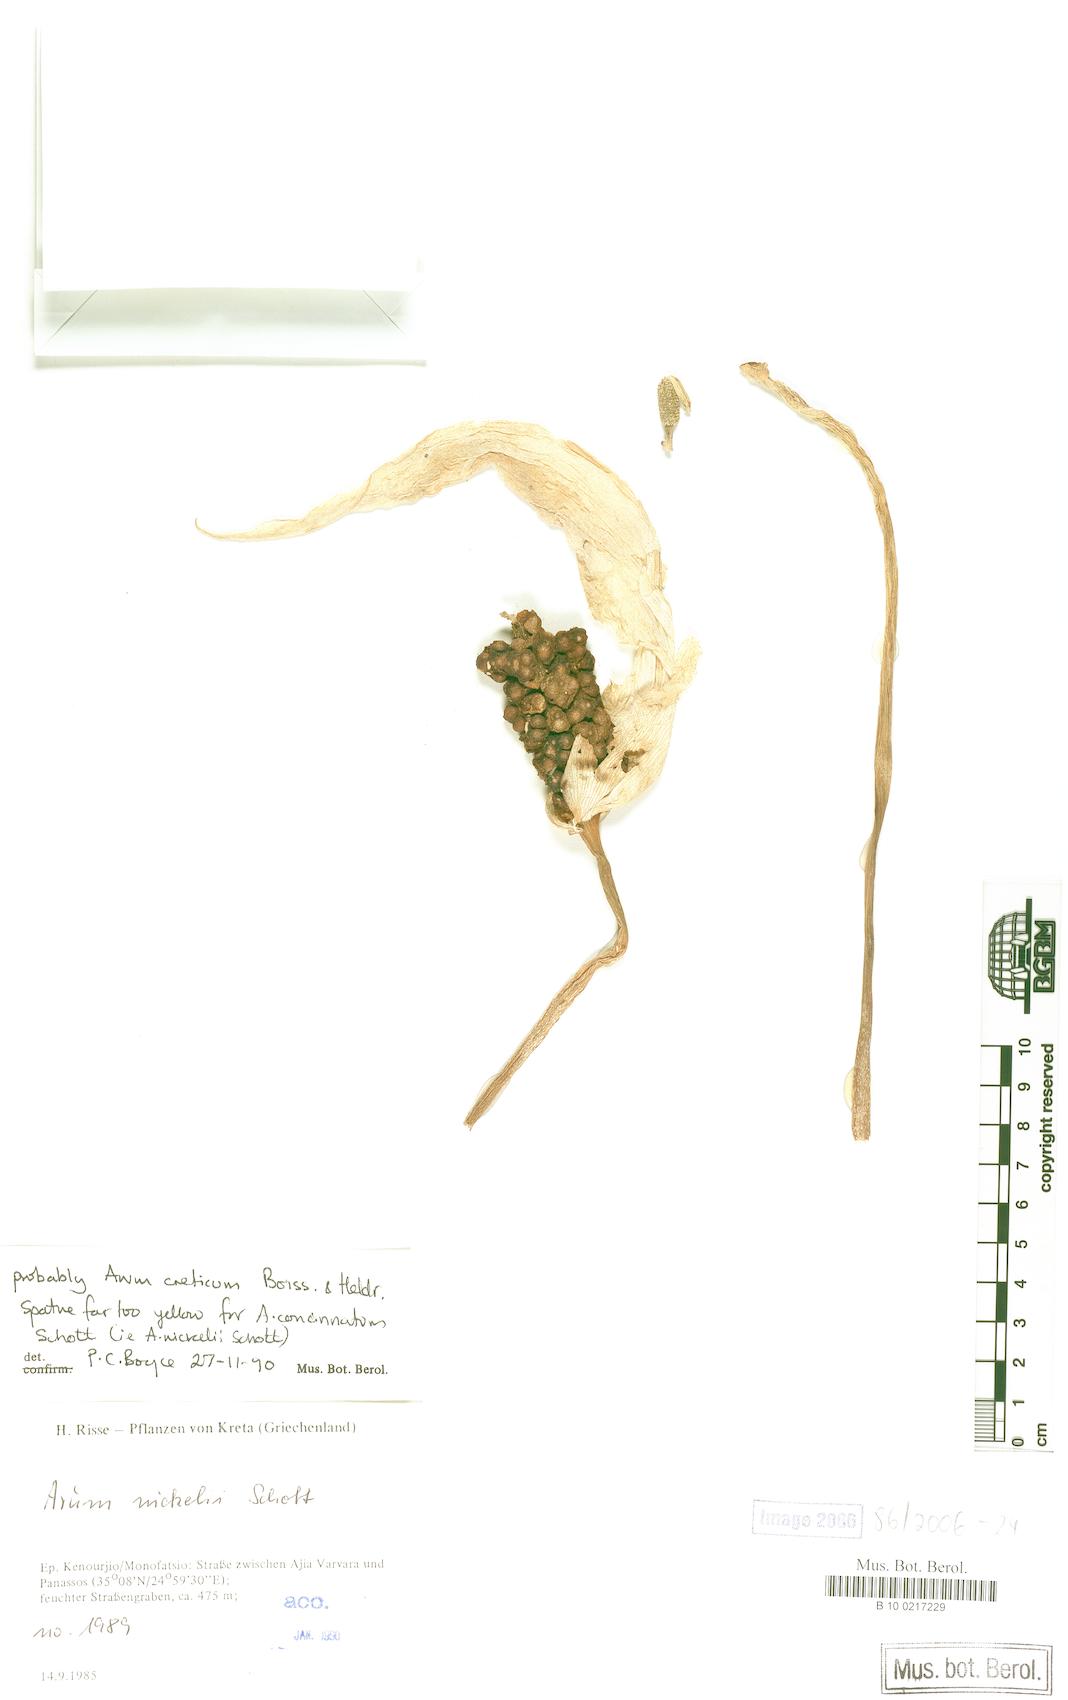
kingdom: Plantae
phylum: Tracheophyta
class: Liliopsida
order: Alismatales
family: Araceae
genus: Arum
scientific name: Arum concinnatum
